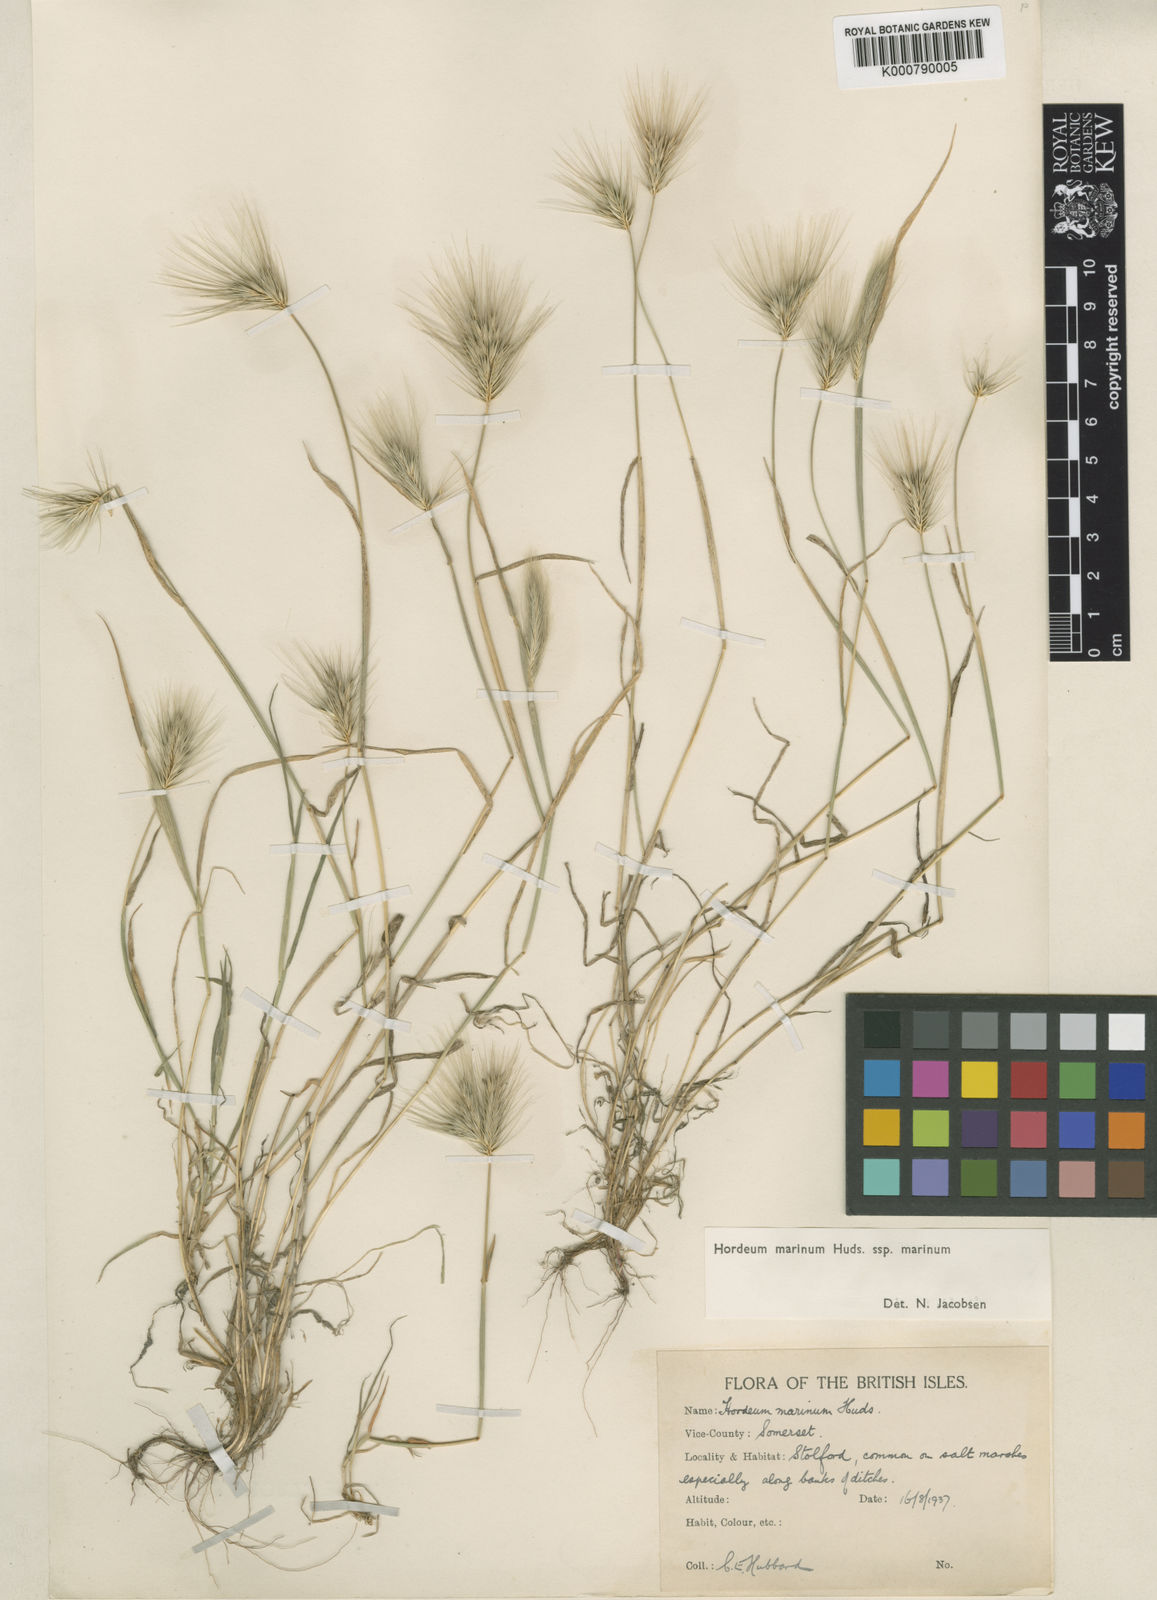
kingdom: Plantae
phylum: Tracheophyta
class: Liliopsida
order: Poales
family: Poaceae
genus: Hordeum
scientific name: Hordeum marinum
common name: Sea barley
